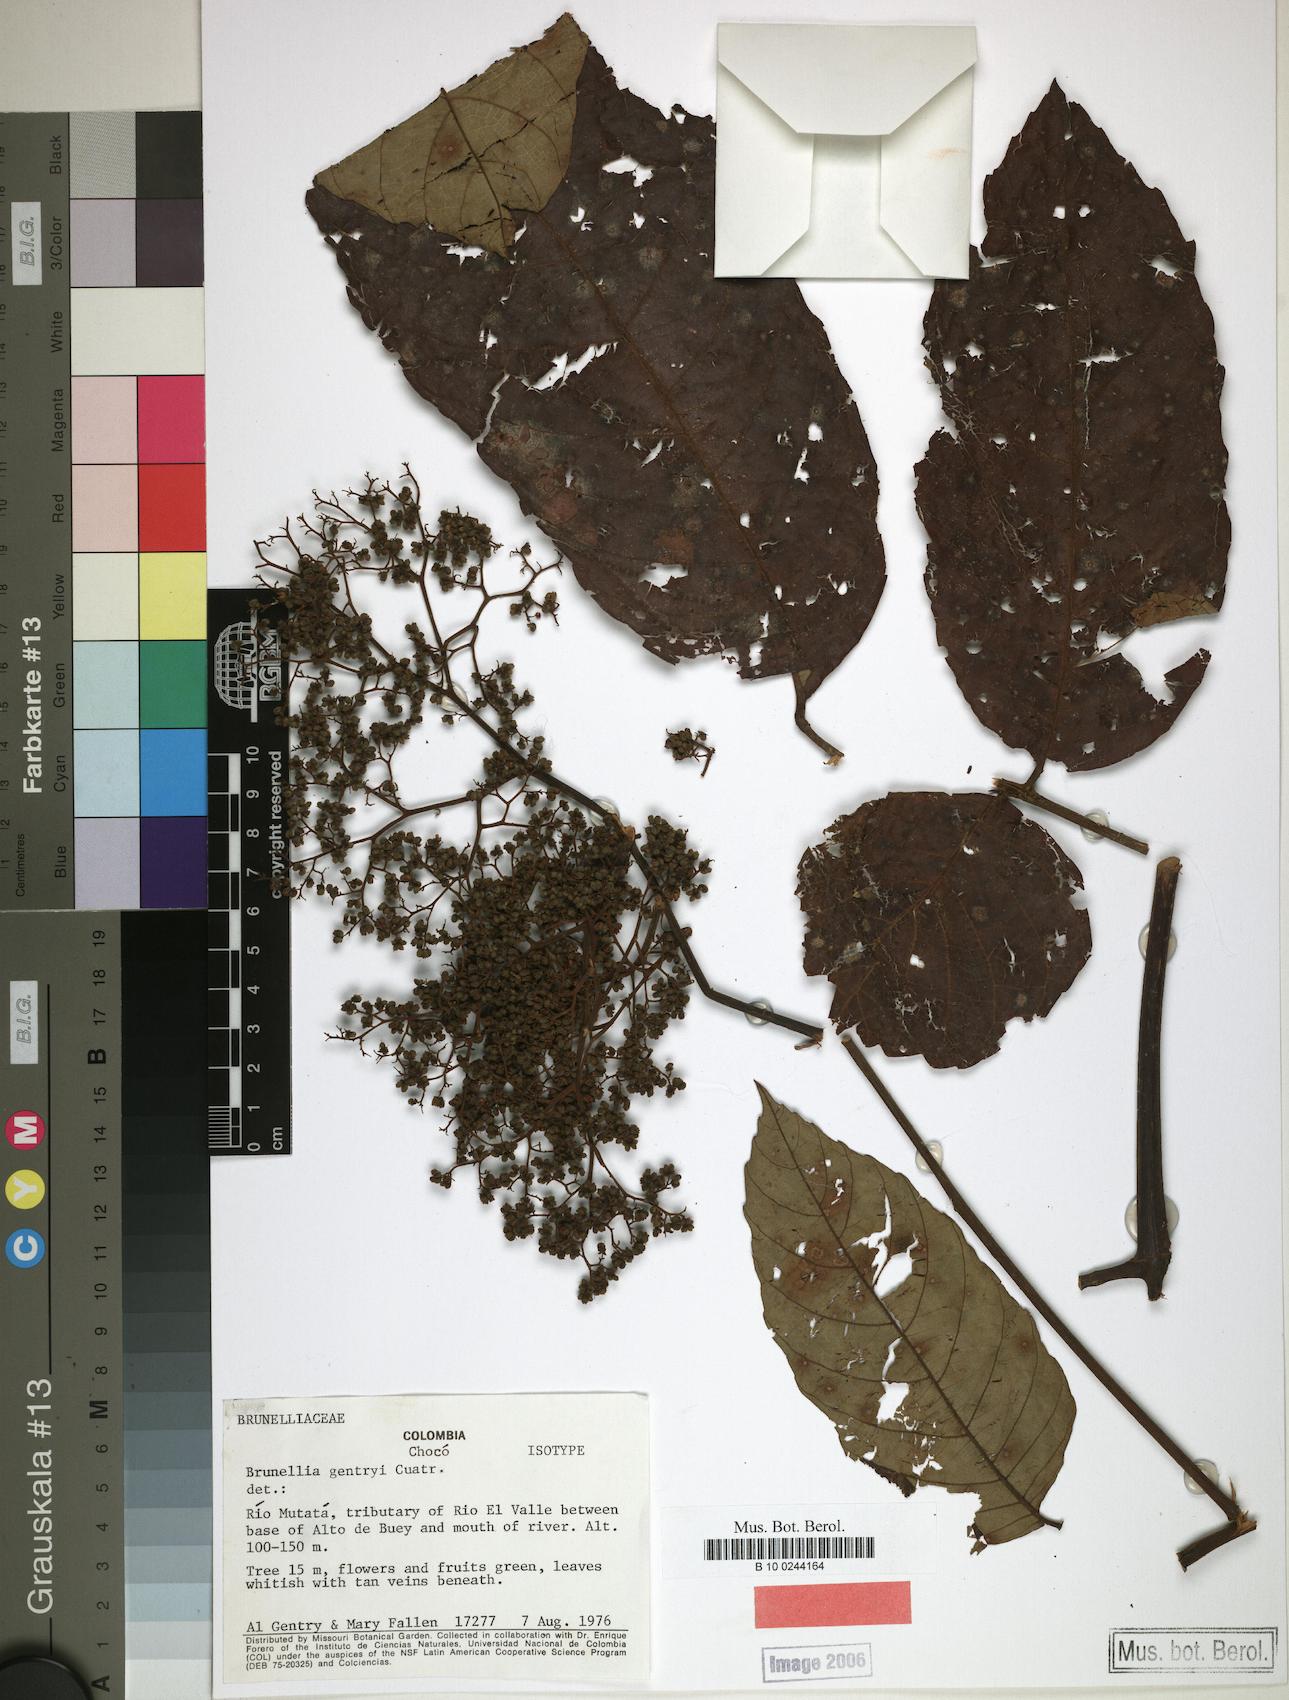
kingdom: Plantae
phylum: Tracheophyta
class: Magnoliopsida
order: Oxalidales
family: Brunelliaceae
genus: Brunellia
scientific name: Brunellia hygrothermica
